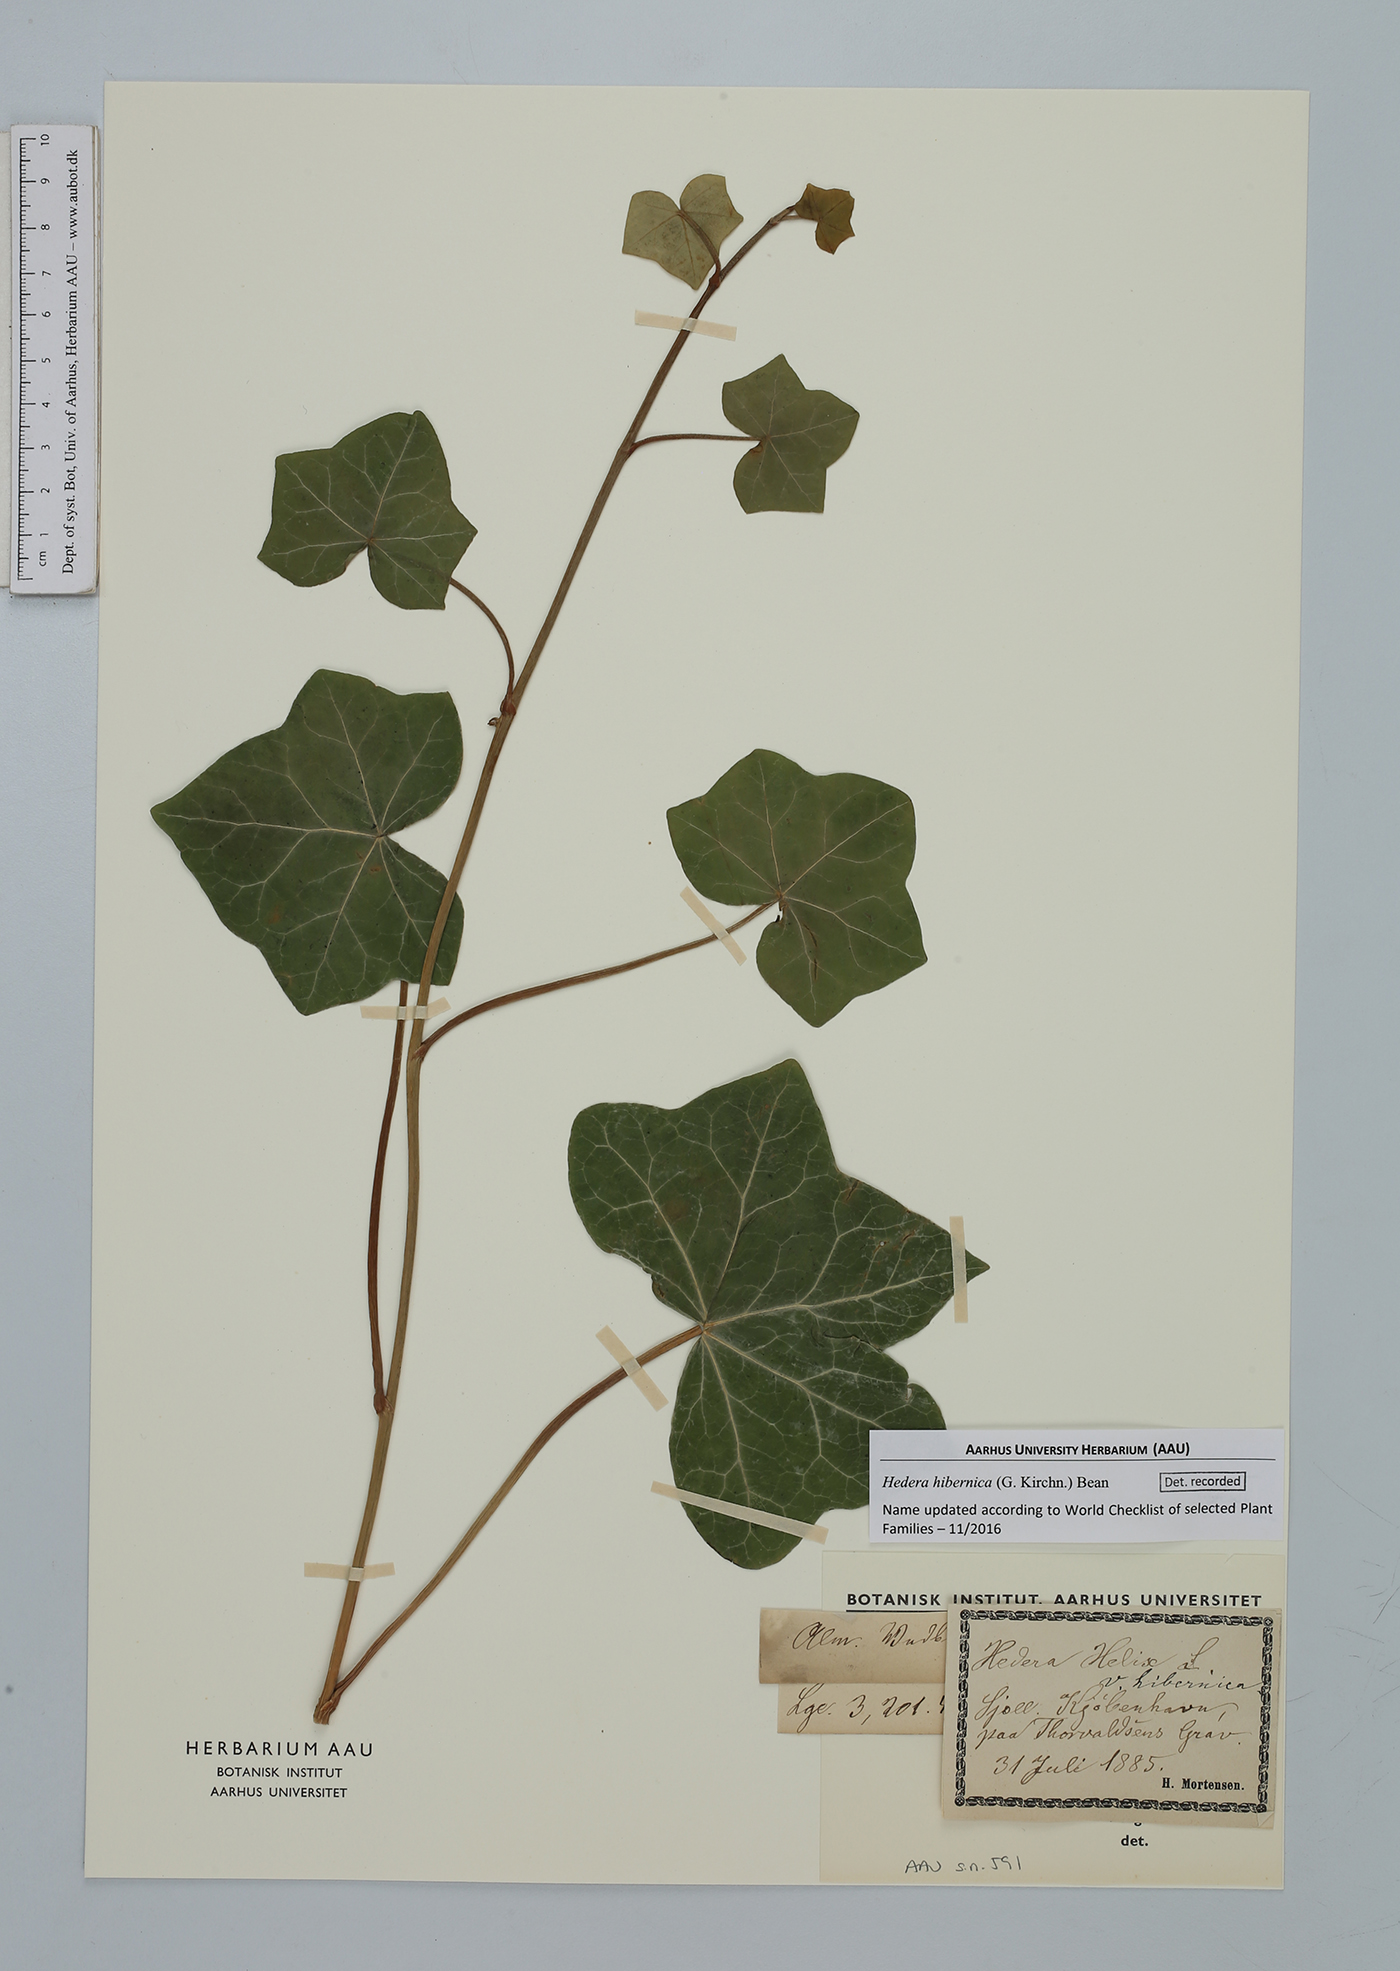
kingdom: Plantae
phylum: Tracheophyta
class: Magnoliopsida
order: Apiales
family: Araliaceae
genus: Hedera
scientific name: Hedera hibernica
